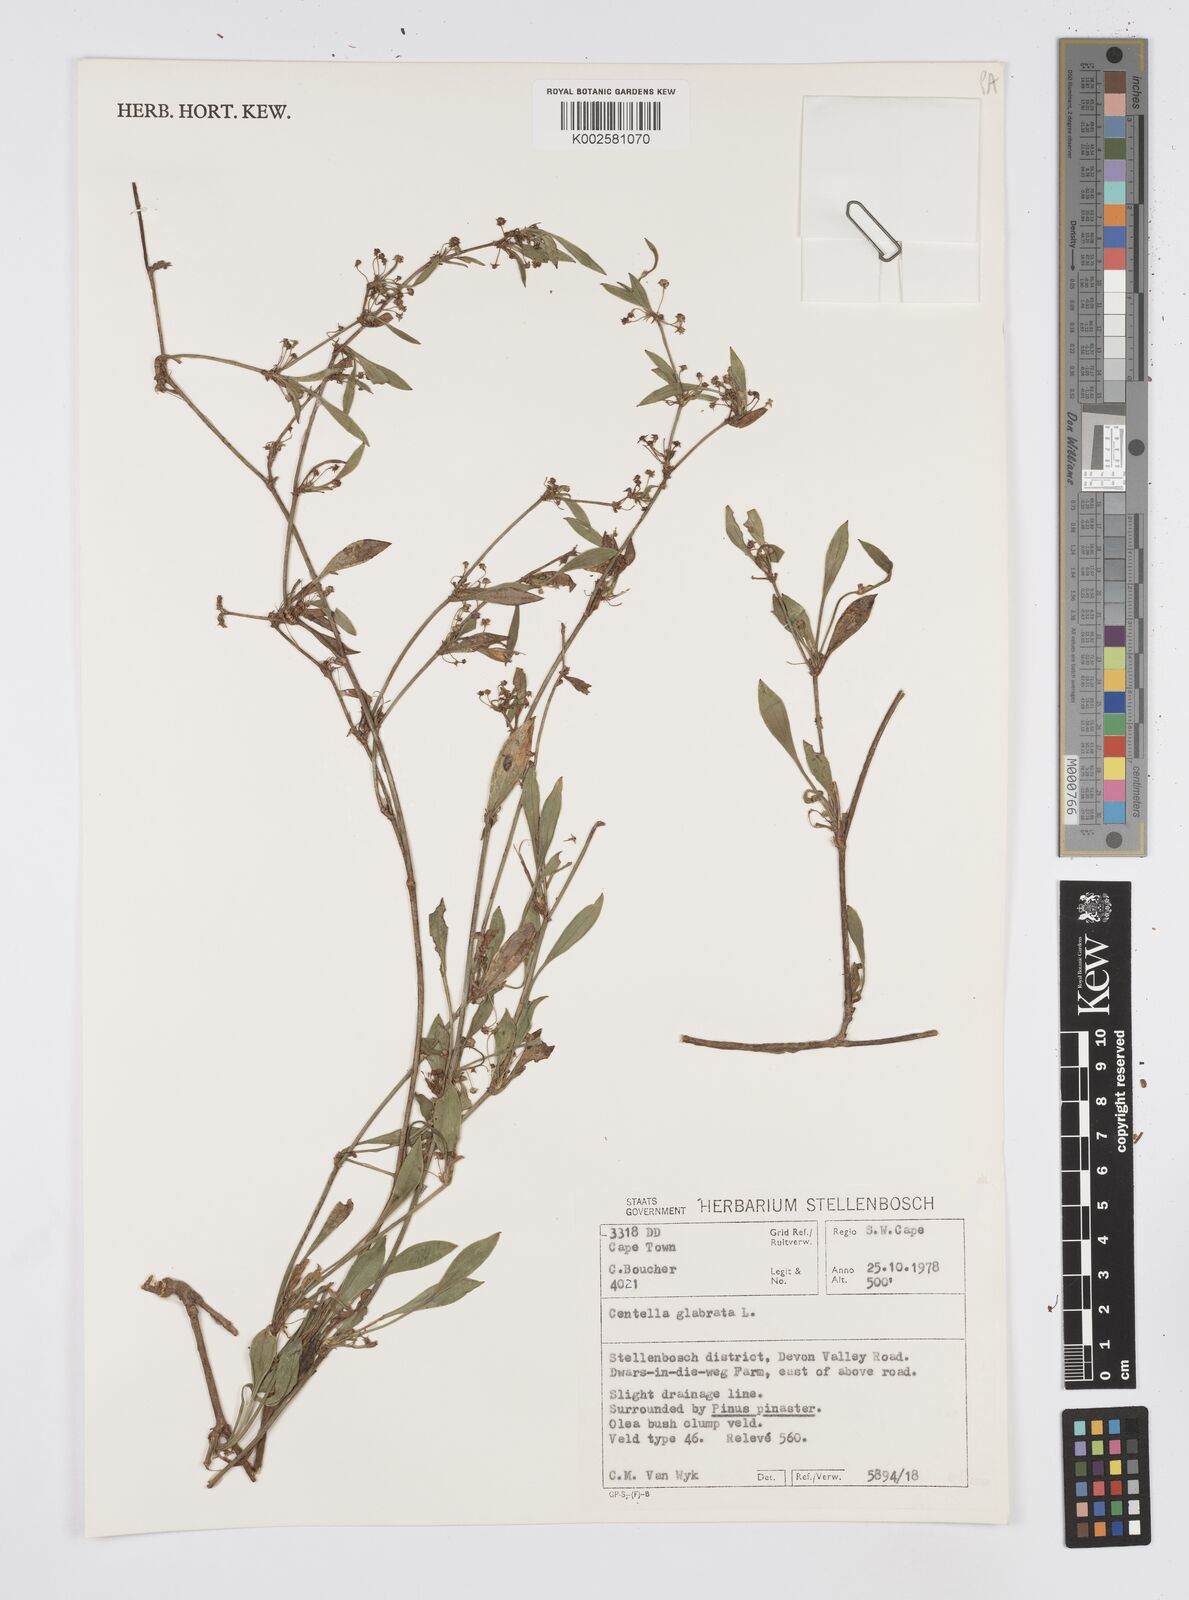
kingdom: Plantae
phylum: Tracheophyta
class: Magnoliopsida
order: Apiales
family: Apiaceae
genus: Centella
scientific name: Centella glabrata
